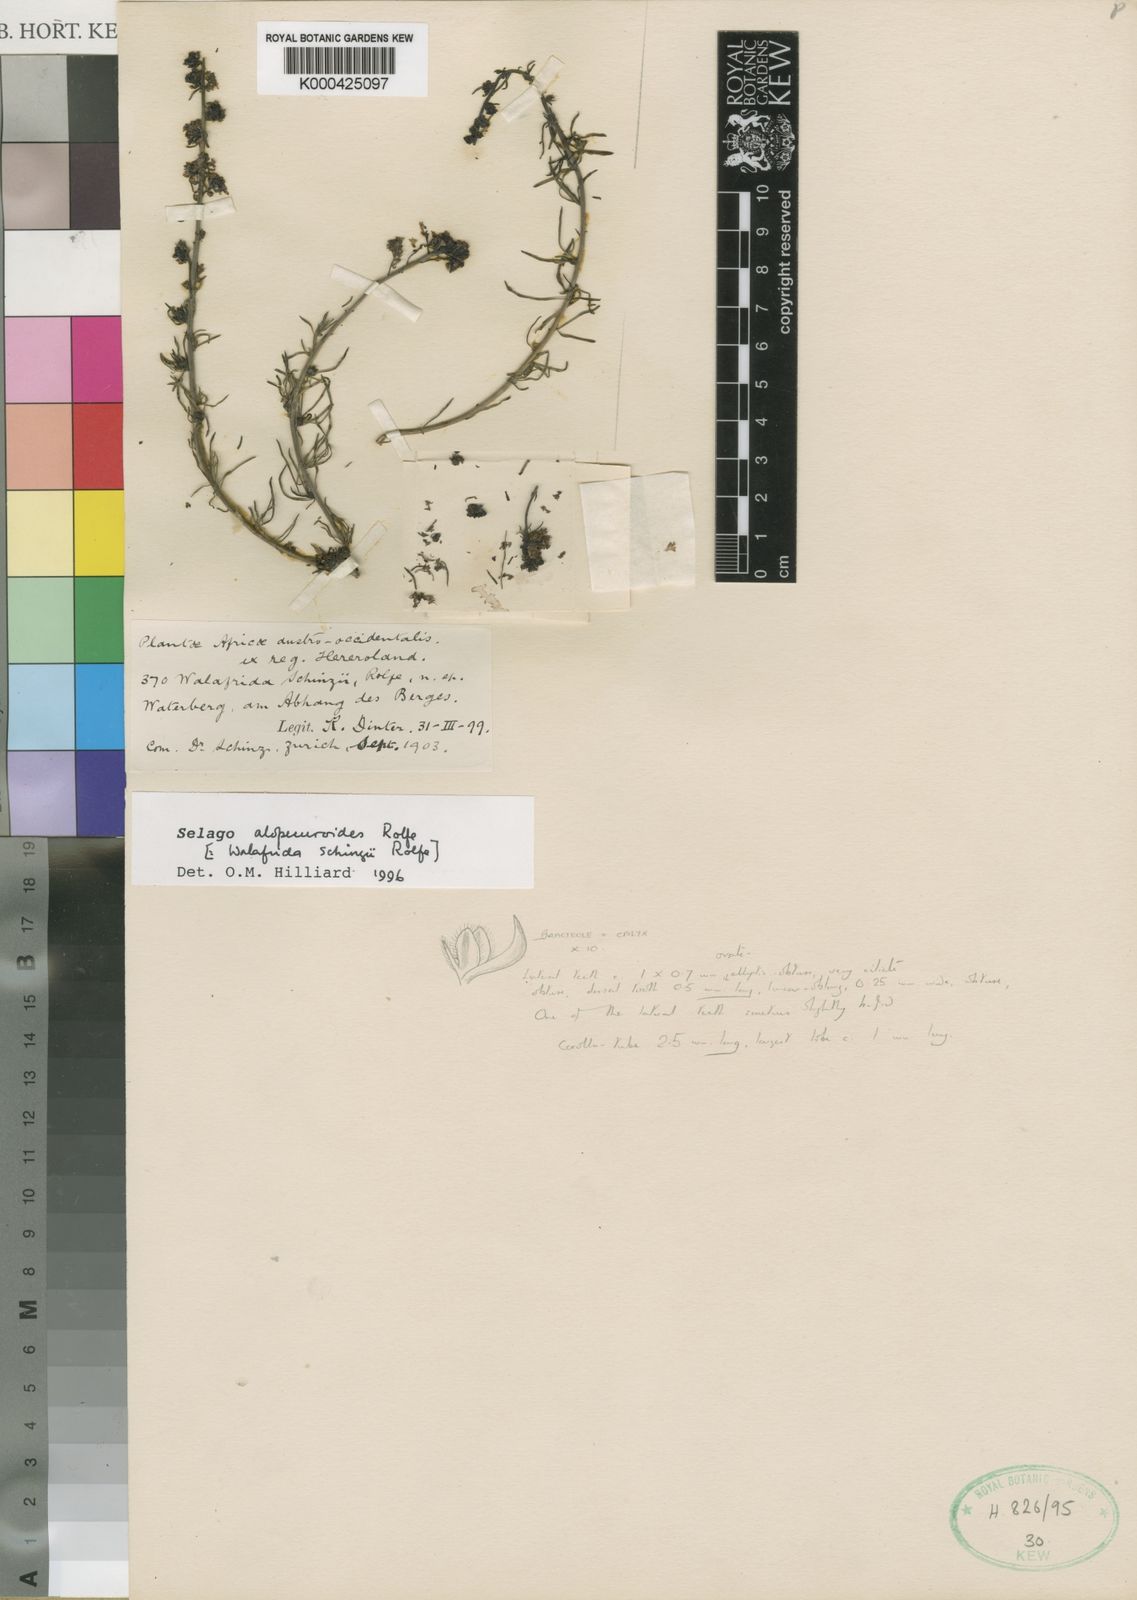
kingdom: Plantae
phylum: Tracheophyta
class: Magnoliopsida
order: Lamiales
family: Scrophulariaceae
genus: Selago
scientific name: Selago alopecuroides
